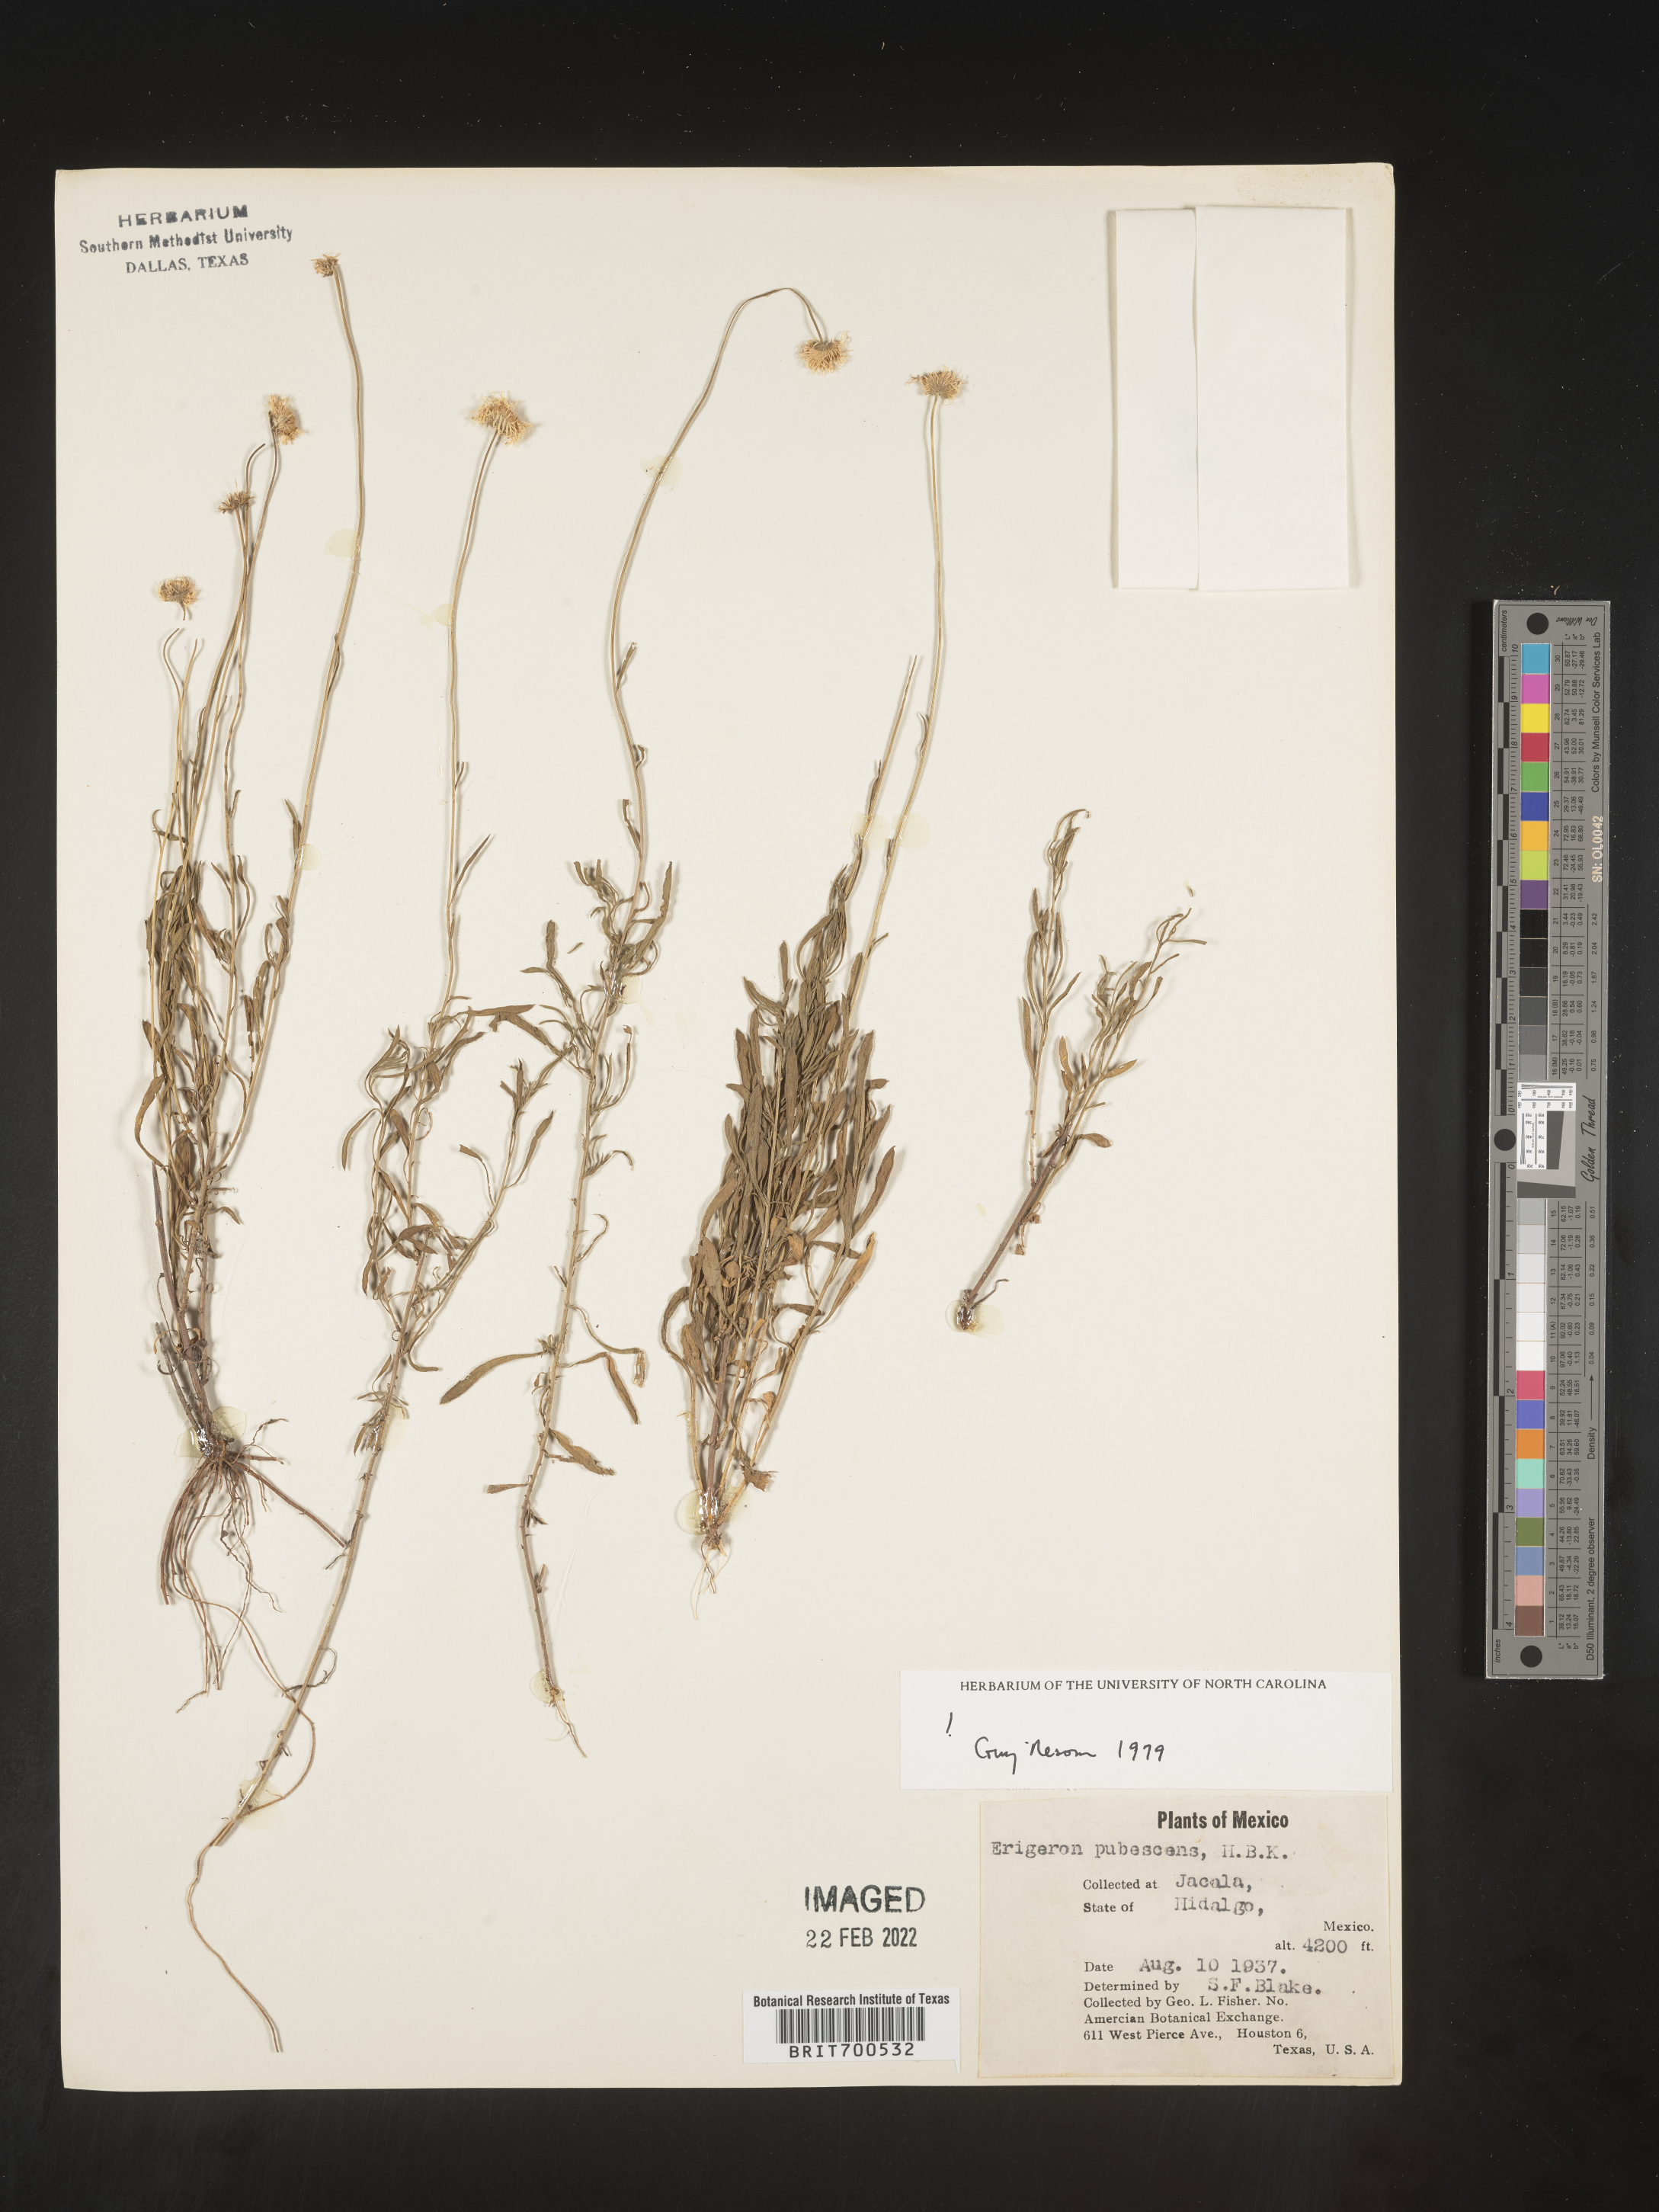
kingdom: Plantae
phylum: Tracheophyta
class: Magnoliopsida
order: Asterales
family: Asteraceae
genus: Erigeron
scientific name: Erigeron pubescens
